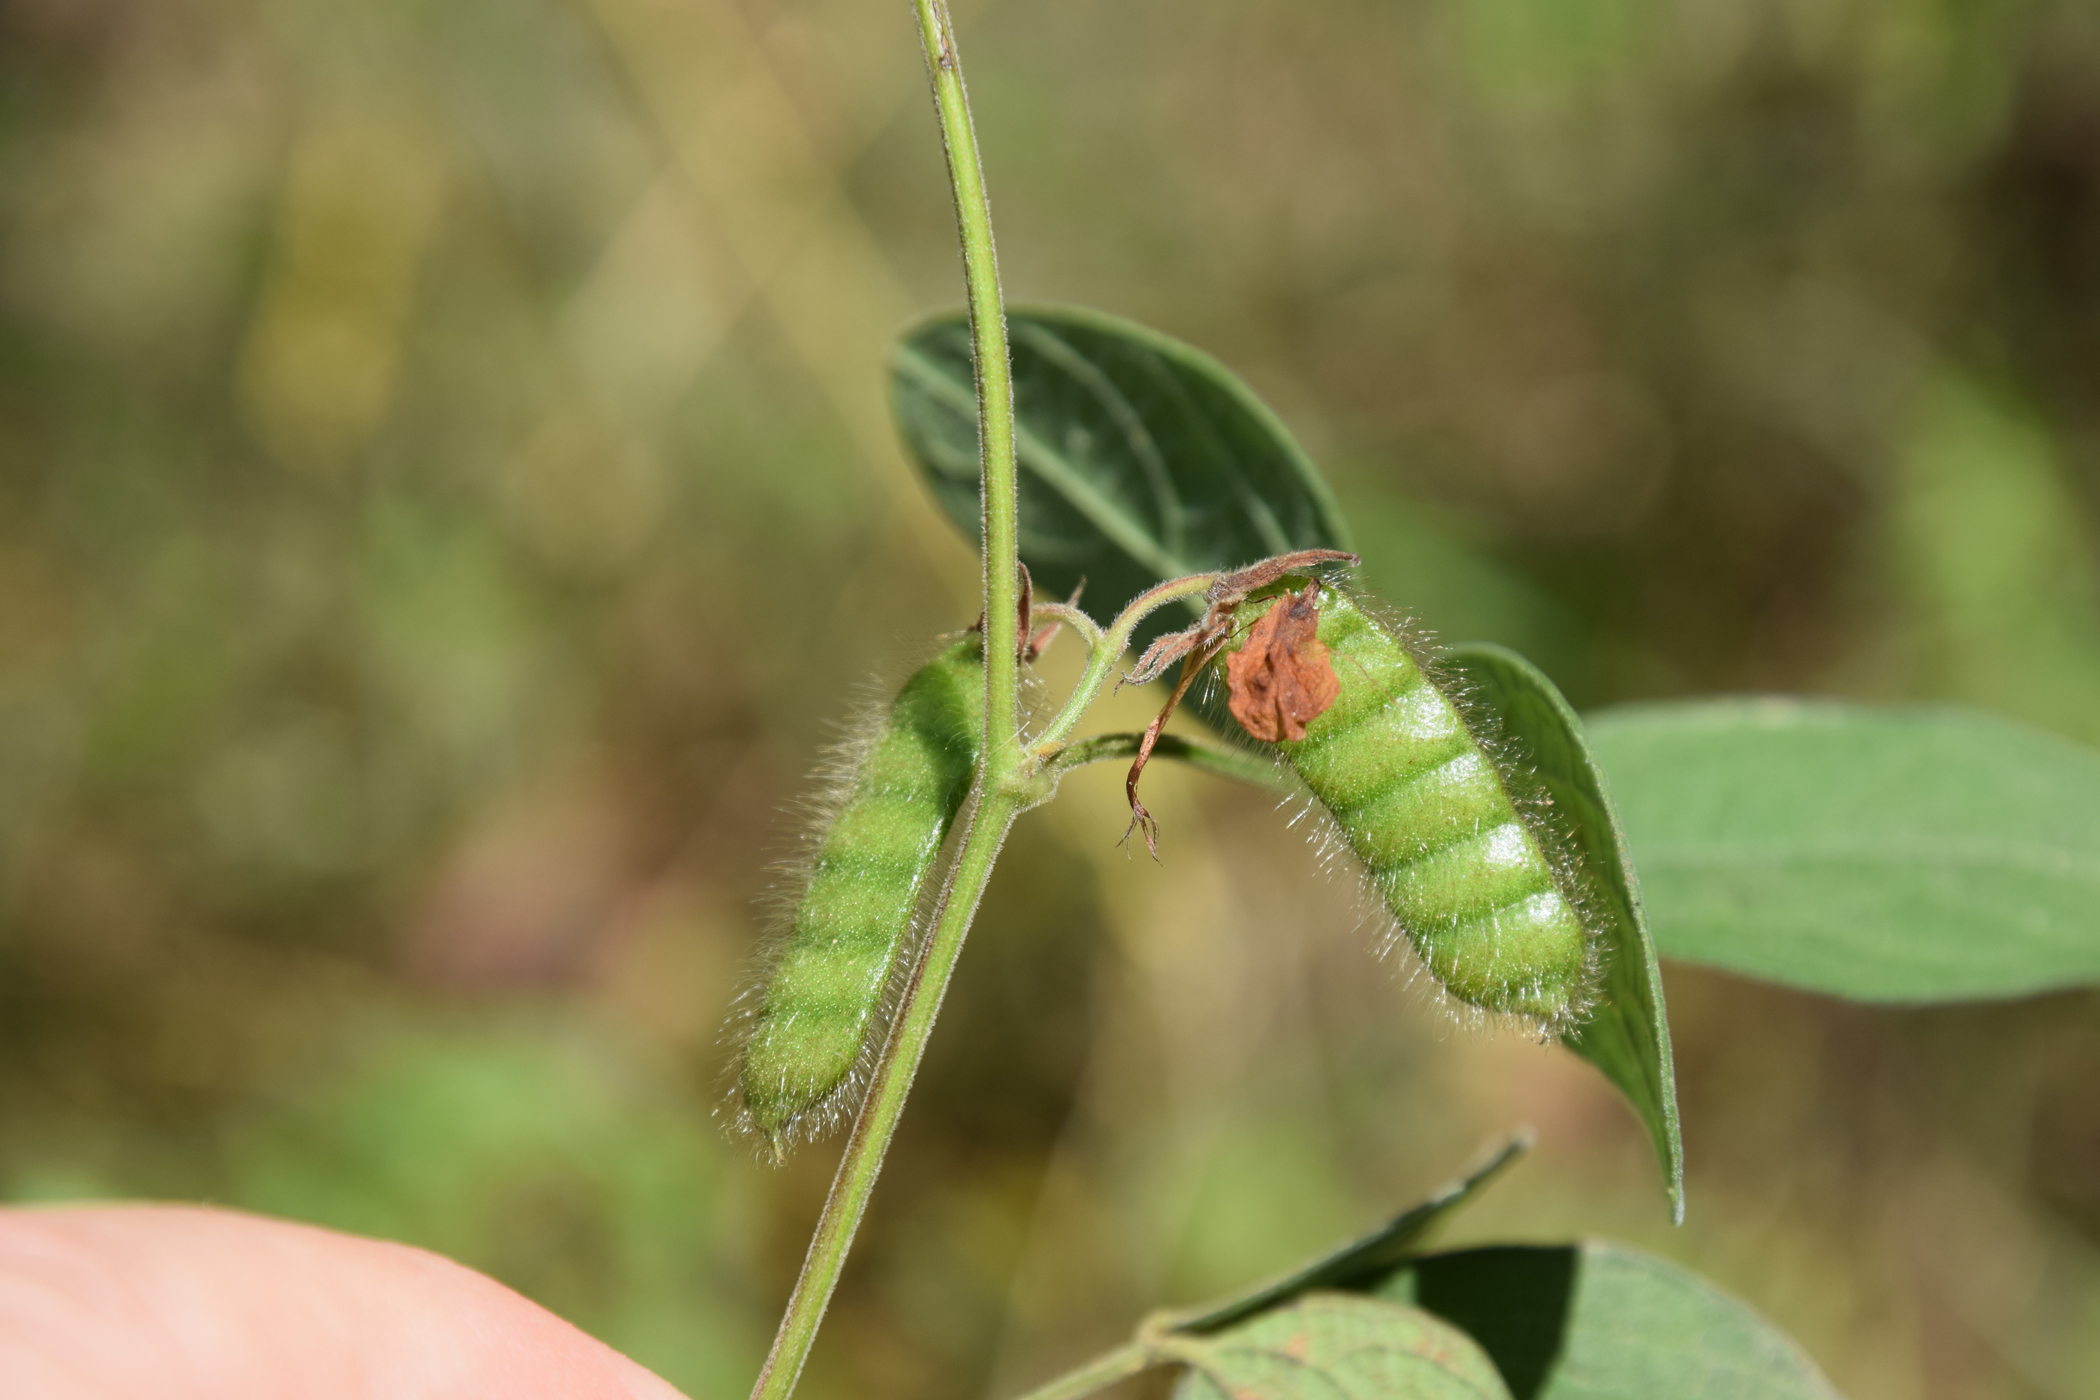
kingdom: Plantae
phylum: Tracheophyta
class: Magnoliopsida
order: Fabales
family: Fabaceae
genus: Cajanus
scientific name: Cajanus scarabaeoides
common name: Showy pigeonpea
